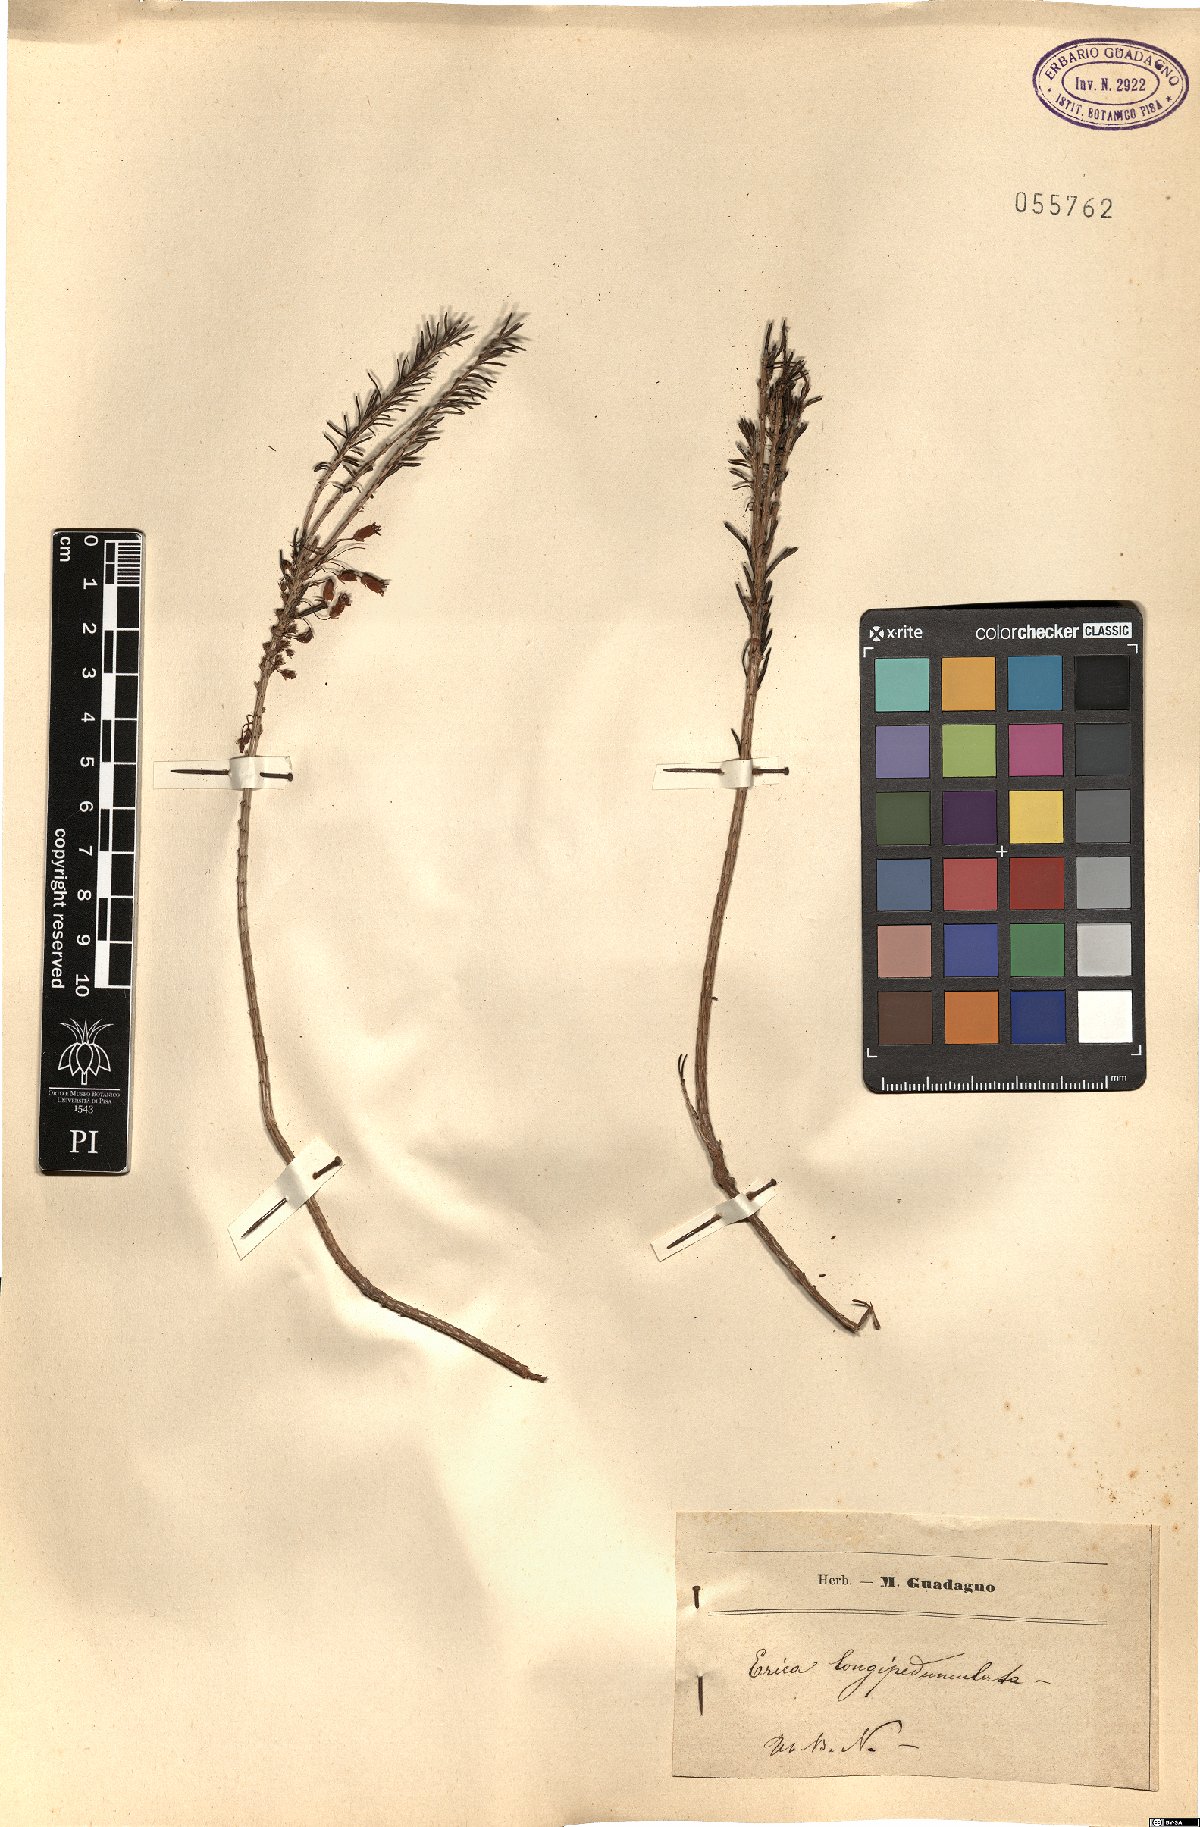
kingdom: Plantae
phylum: Tracheophyta
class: Magnoliopsida
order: Ericales
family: Ericaceae
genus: Erica
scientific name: Erica longipedunculata
